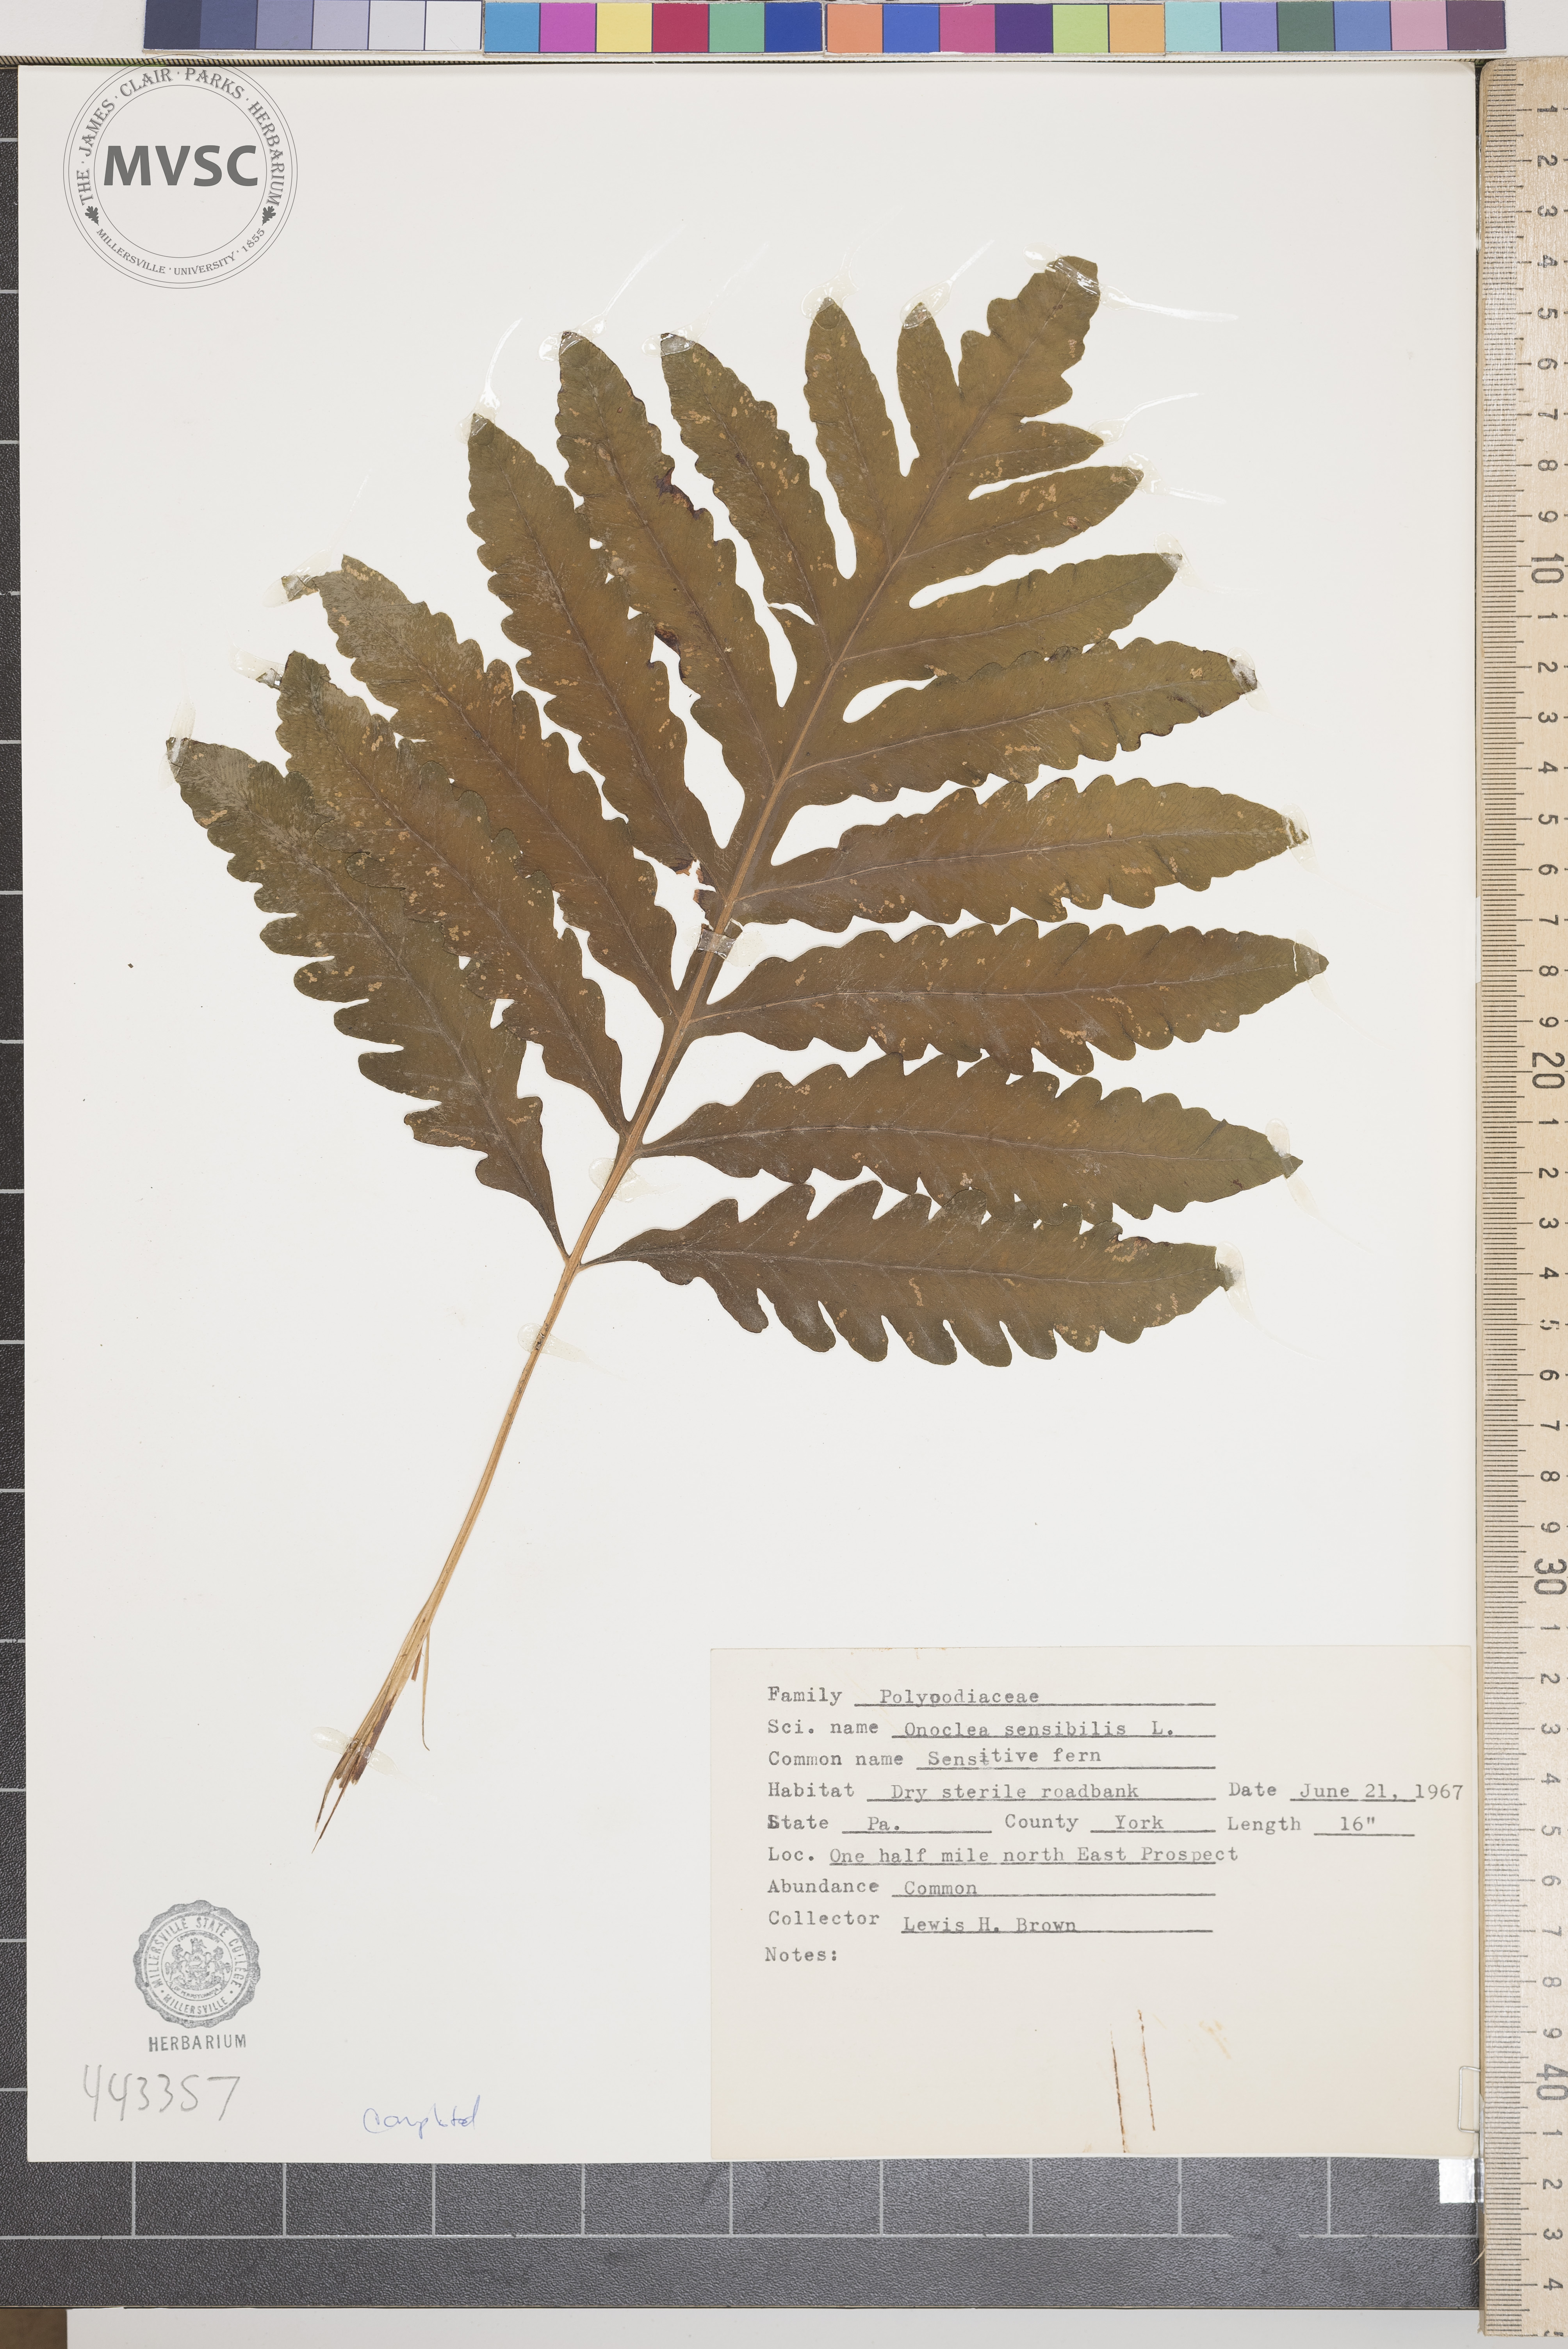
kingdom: Plantae
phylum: Tracheophyta
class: Polypodiopsida
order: Polypodiales
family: Onocleaceae
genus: Onoclea
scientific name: Onoclea sensibilis
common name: Sensitive fern
